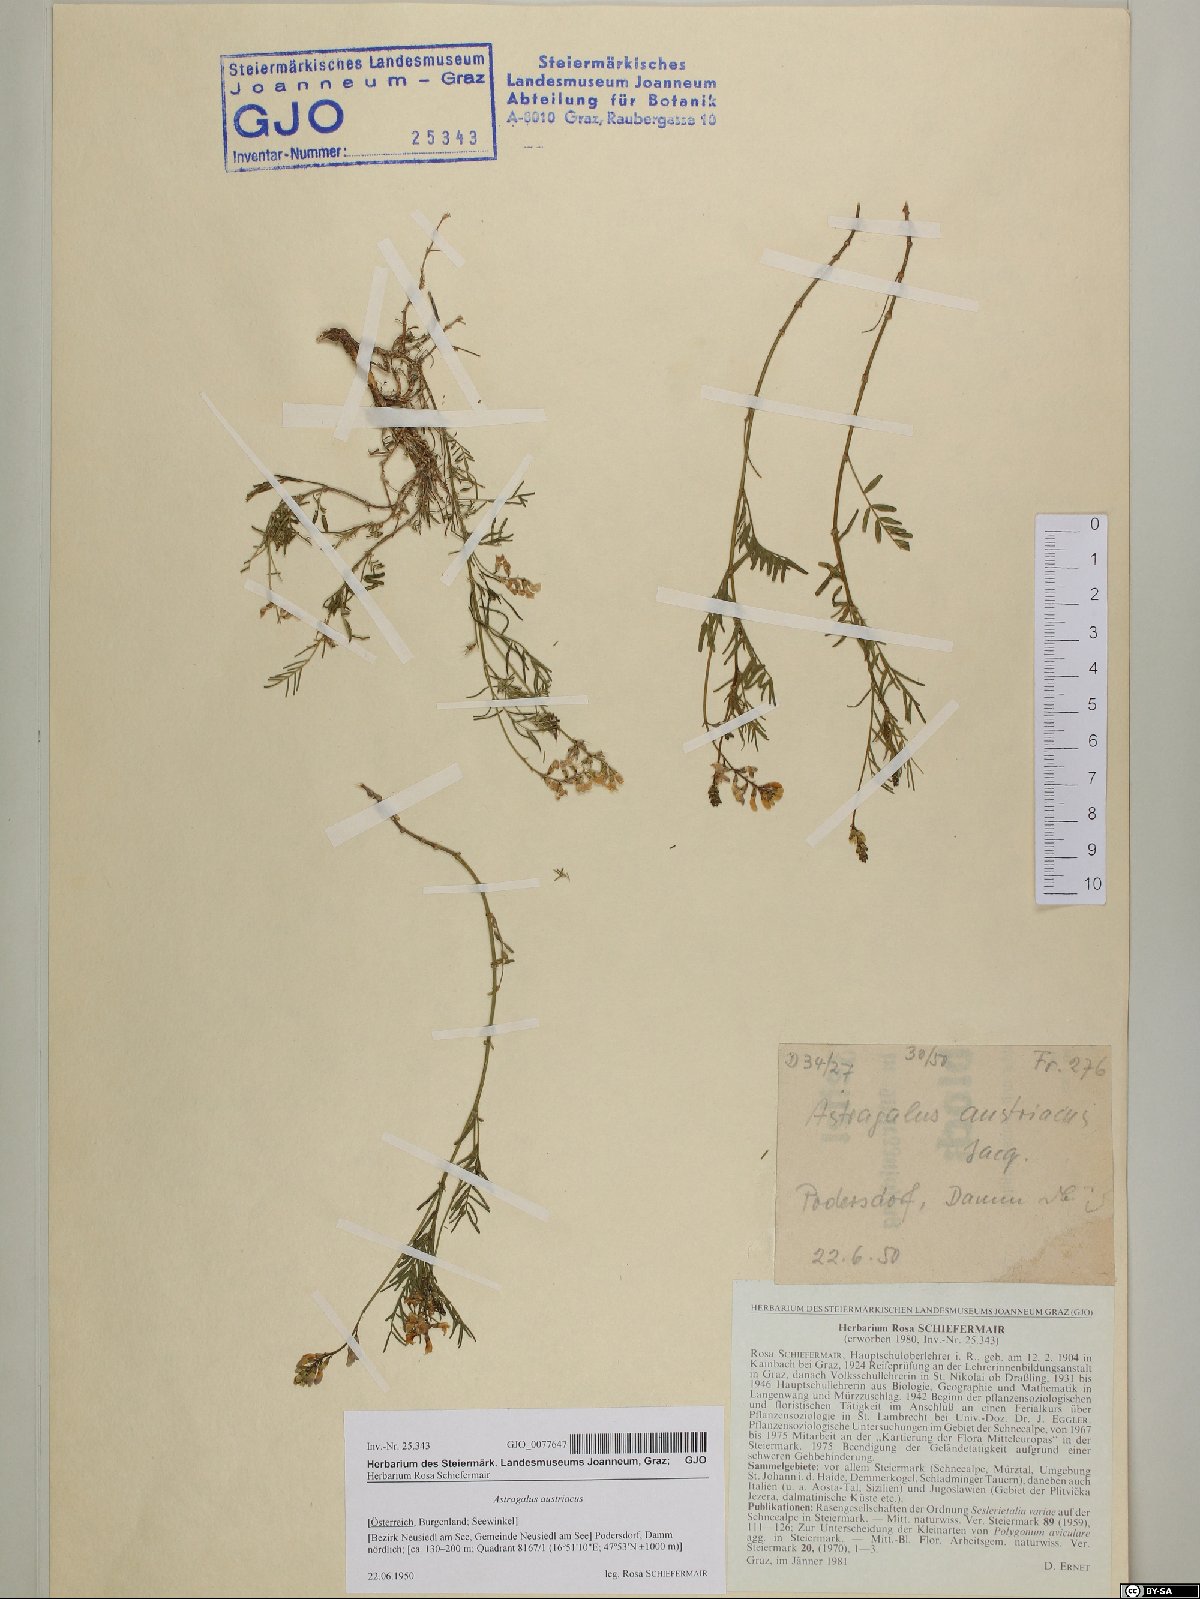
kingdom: Plantae
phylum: Tracheophyta
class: Magnoliopsida
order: Fabales
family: Fabaceae
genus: Astragalus
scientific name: Astragalus austriacus
